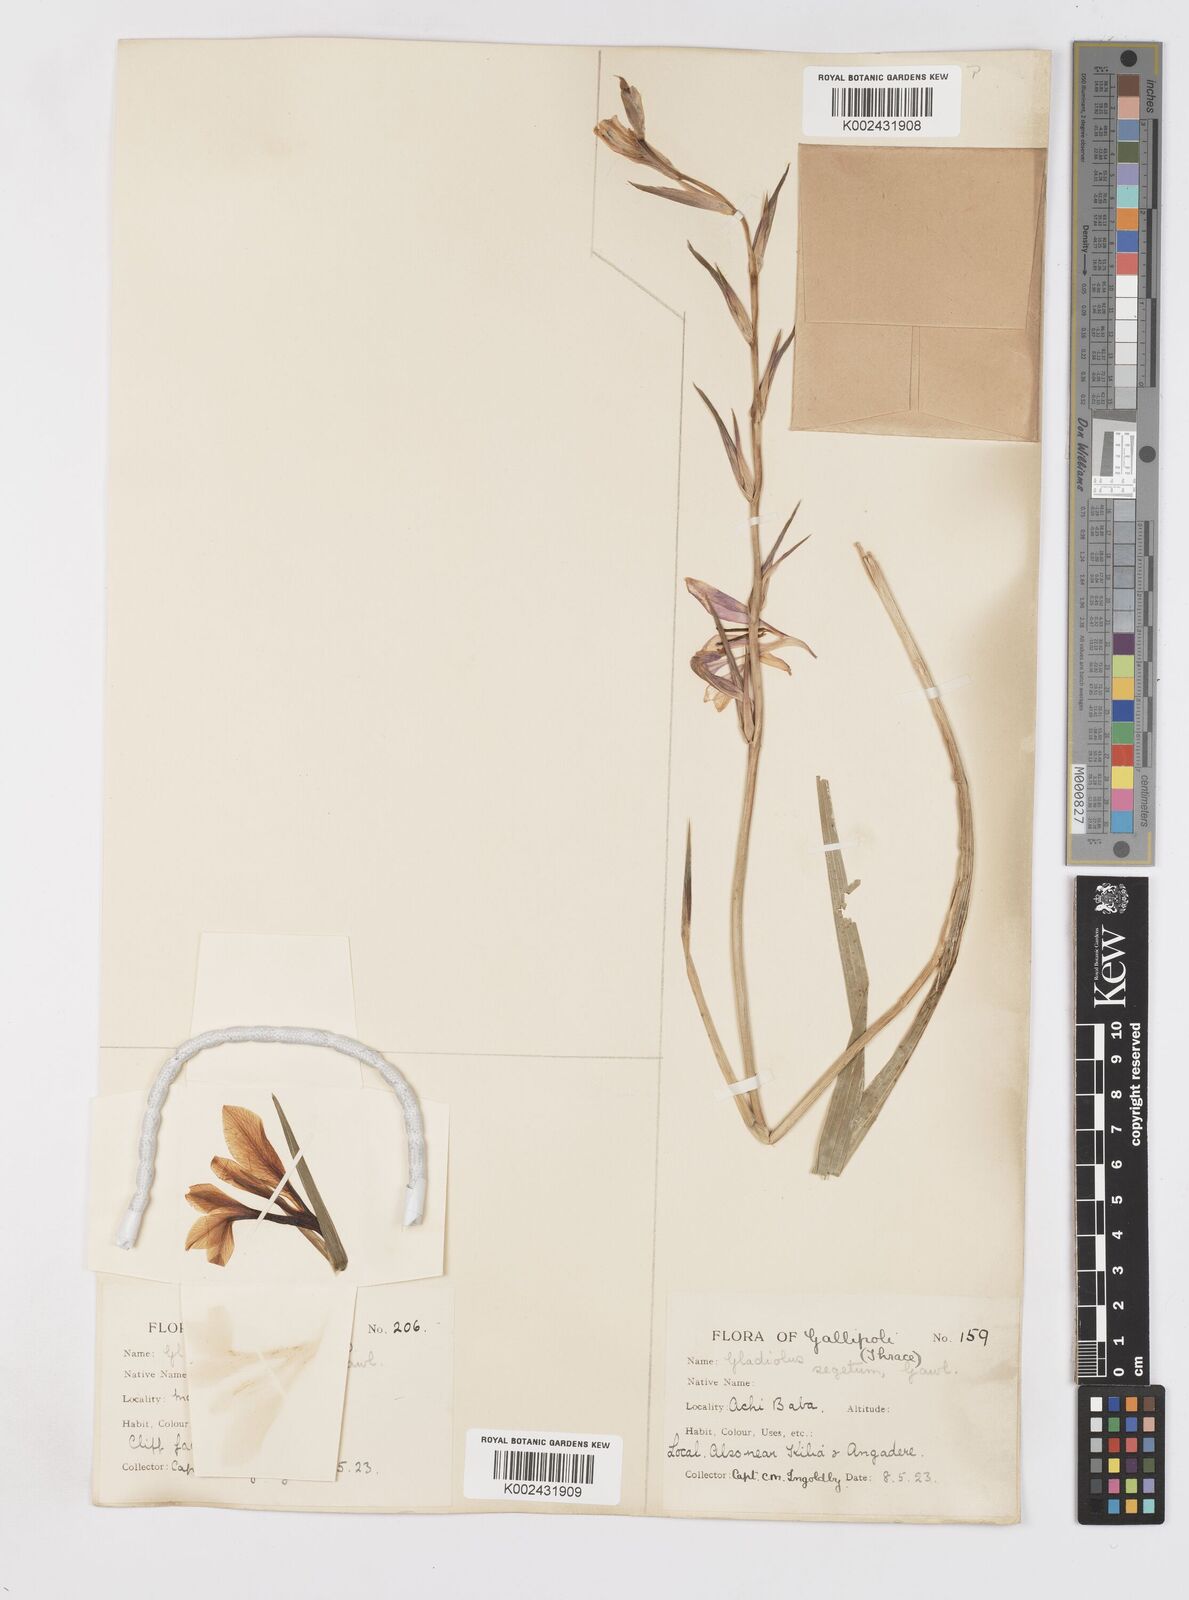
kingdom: Plantae
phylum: Tracheophyta
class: Liliopsida
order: Asparagales
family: Iridaceae
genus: Gladiolus
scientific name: Gladiolus italicus
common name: Field gladiolus
